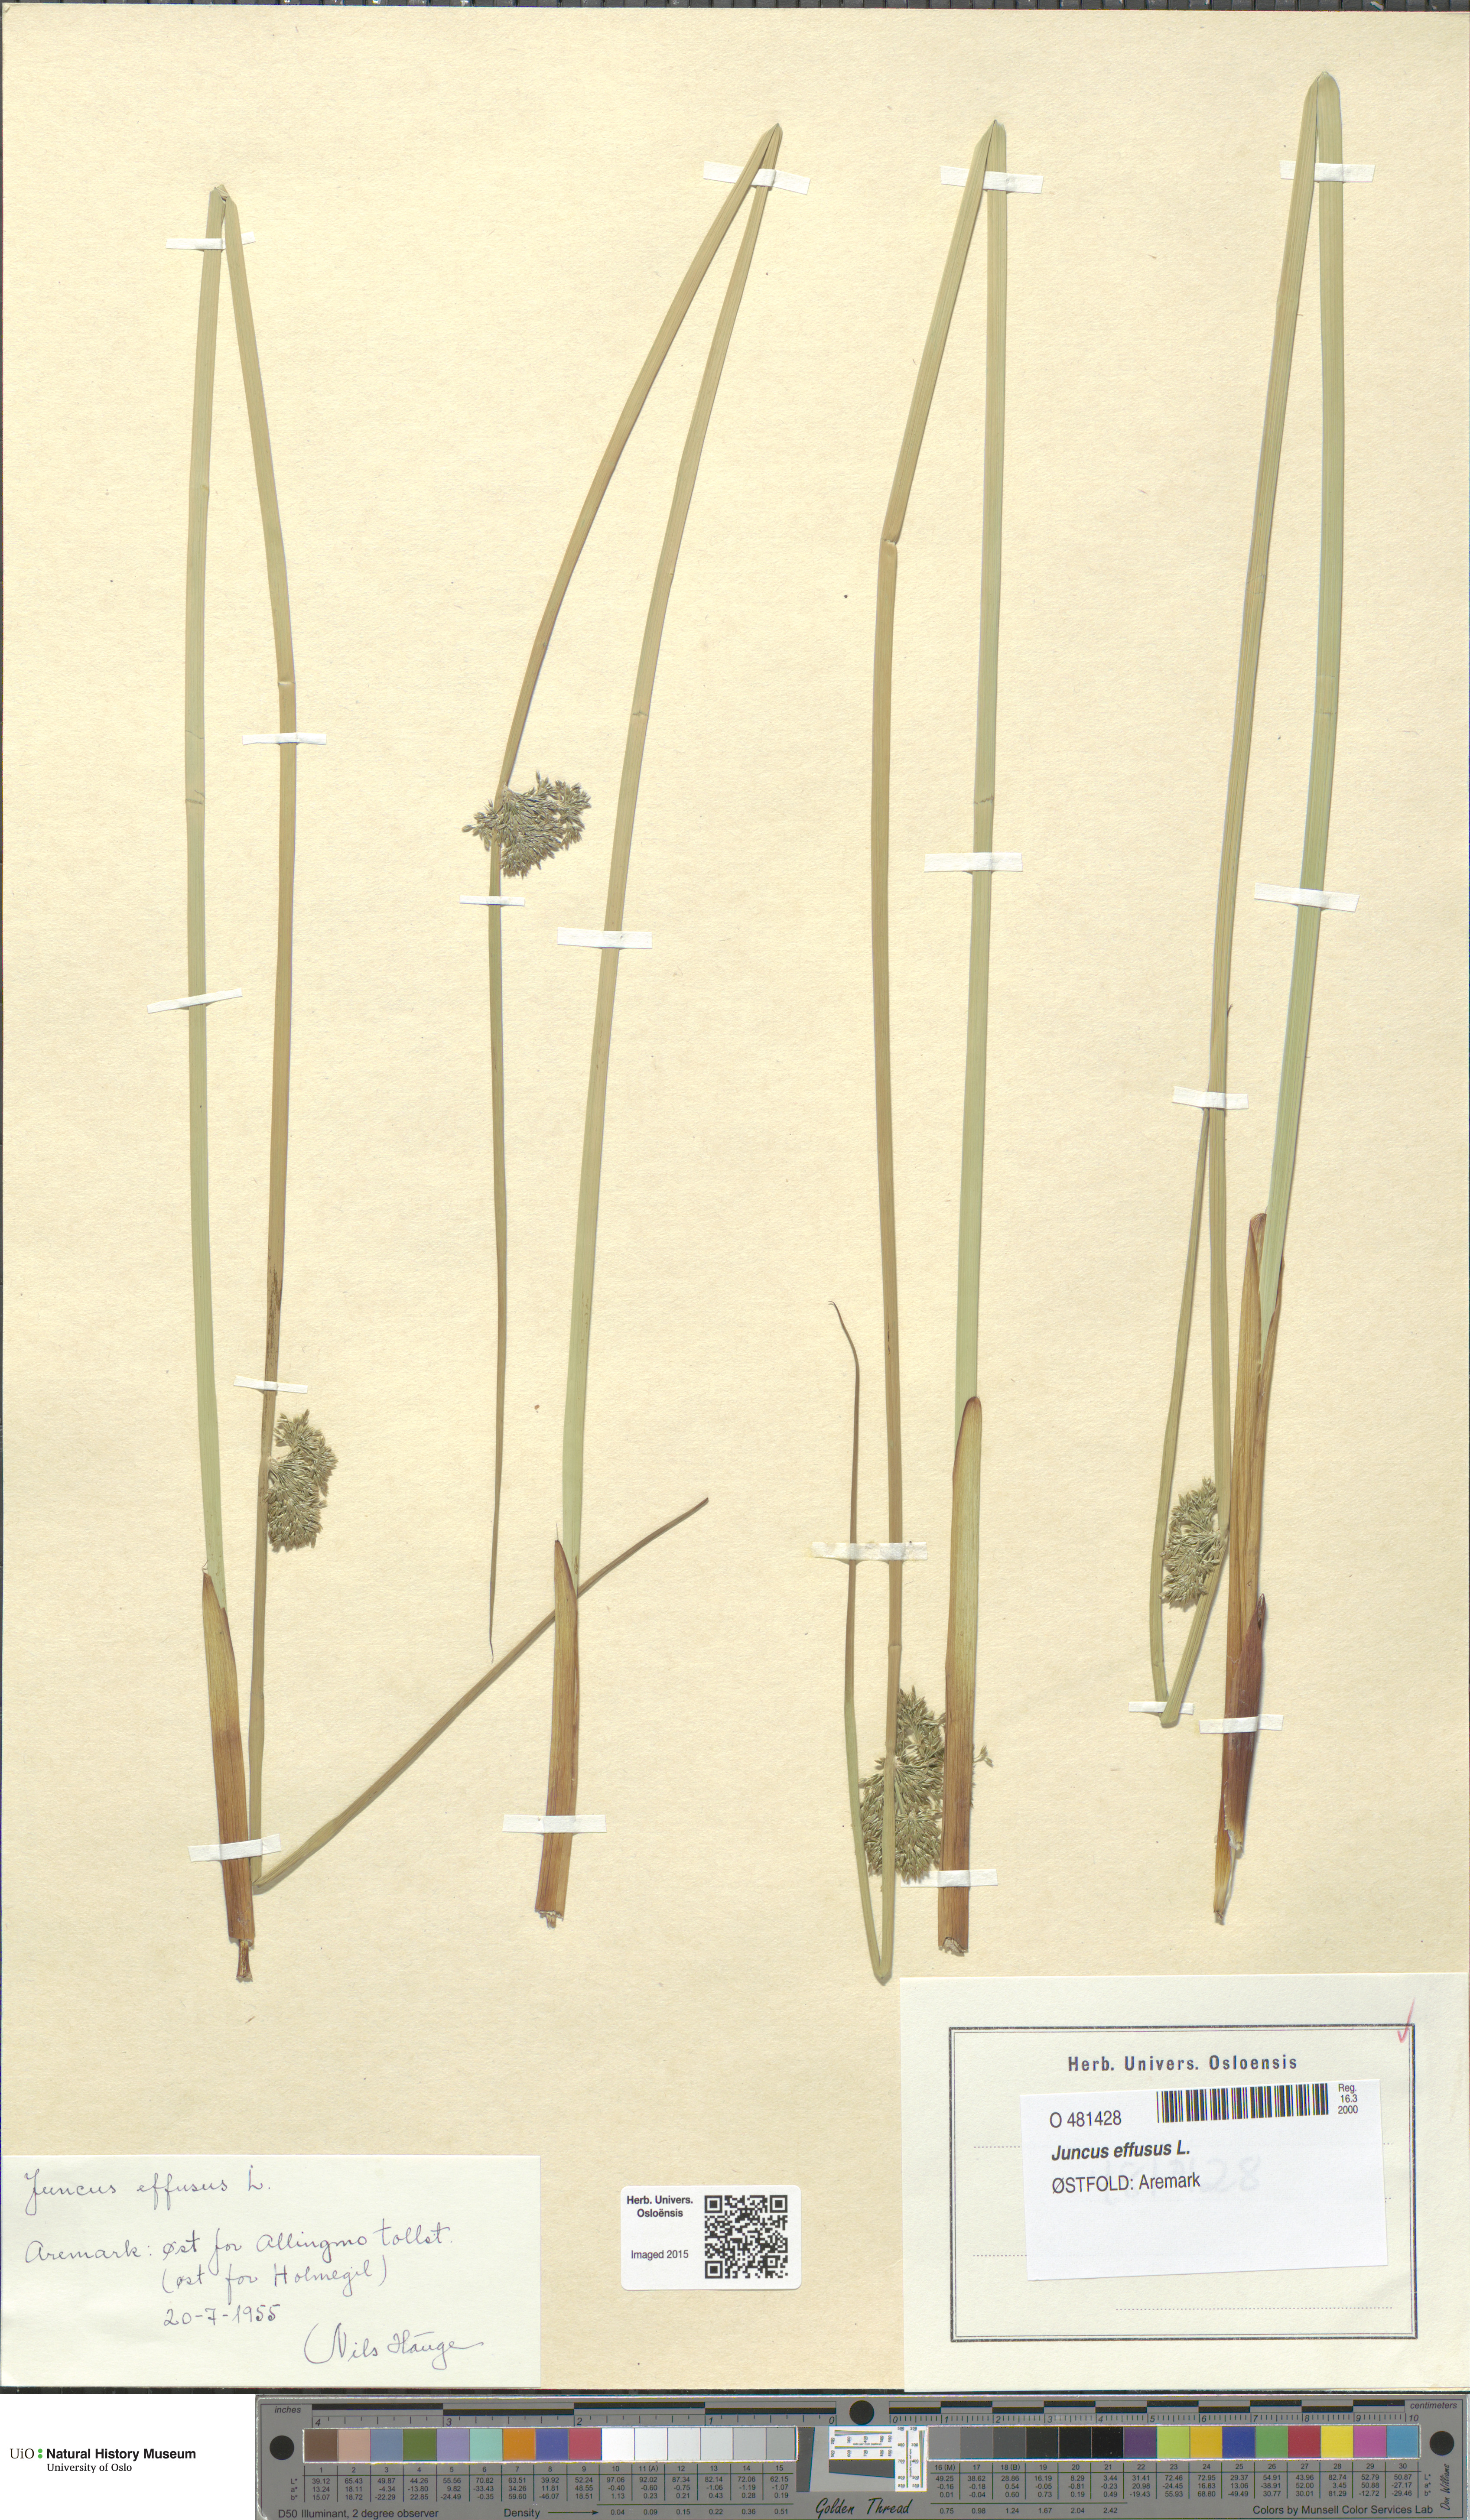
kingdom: Plantae
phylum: Tracheophyta
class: Liliopsida
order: Poales
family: Juncaceae
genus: Juncus
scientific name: Juncus effusus
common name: Soft rush
